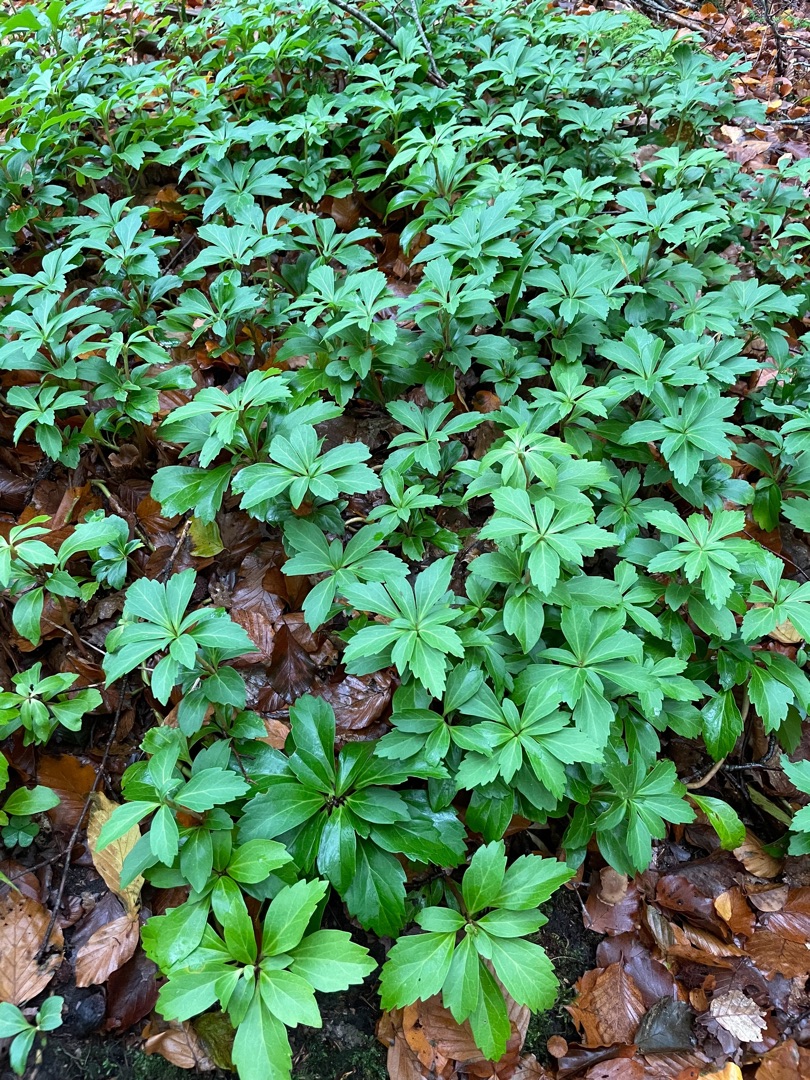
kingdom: Plantae
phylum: Tracheophyta
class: Magnoliopsida
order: Buxales
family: Buxaceae
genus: Pachysandra
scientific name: Pachysandra terminalis
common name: Vinterglans
